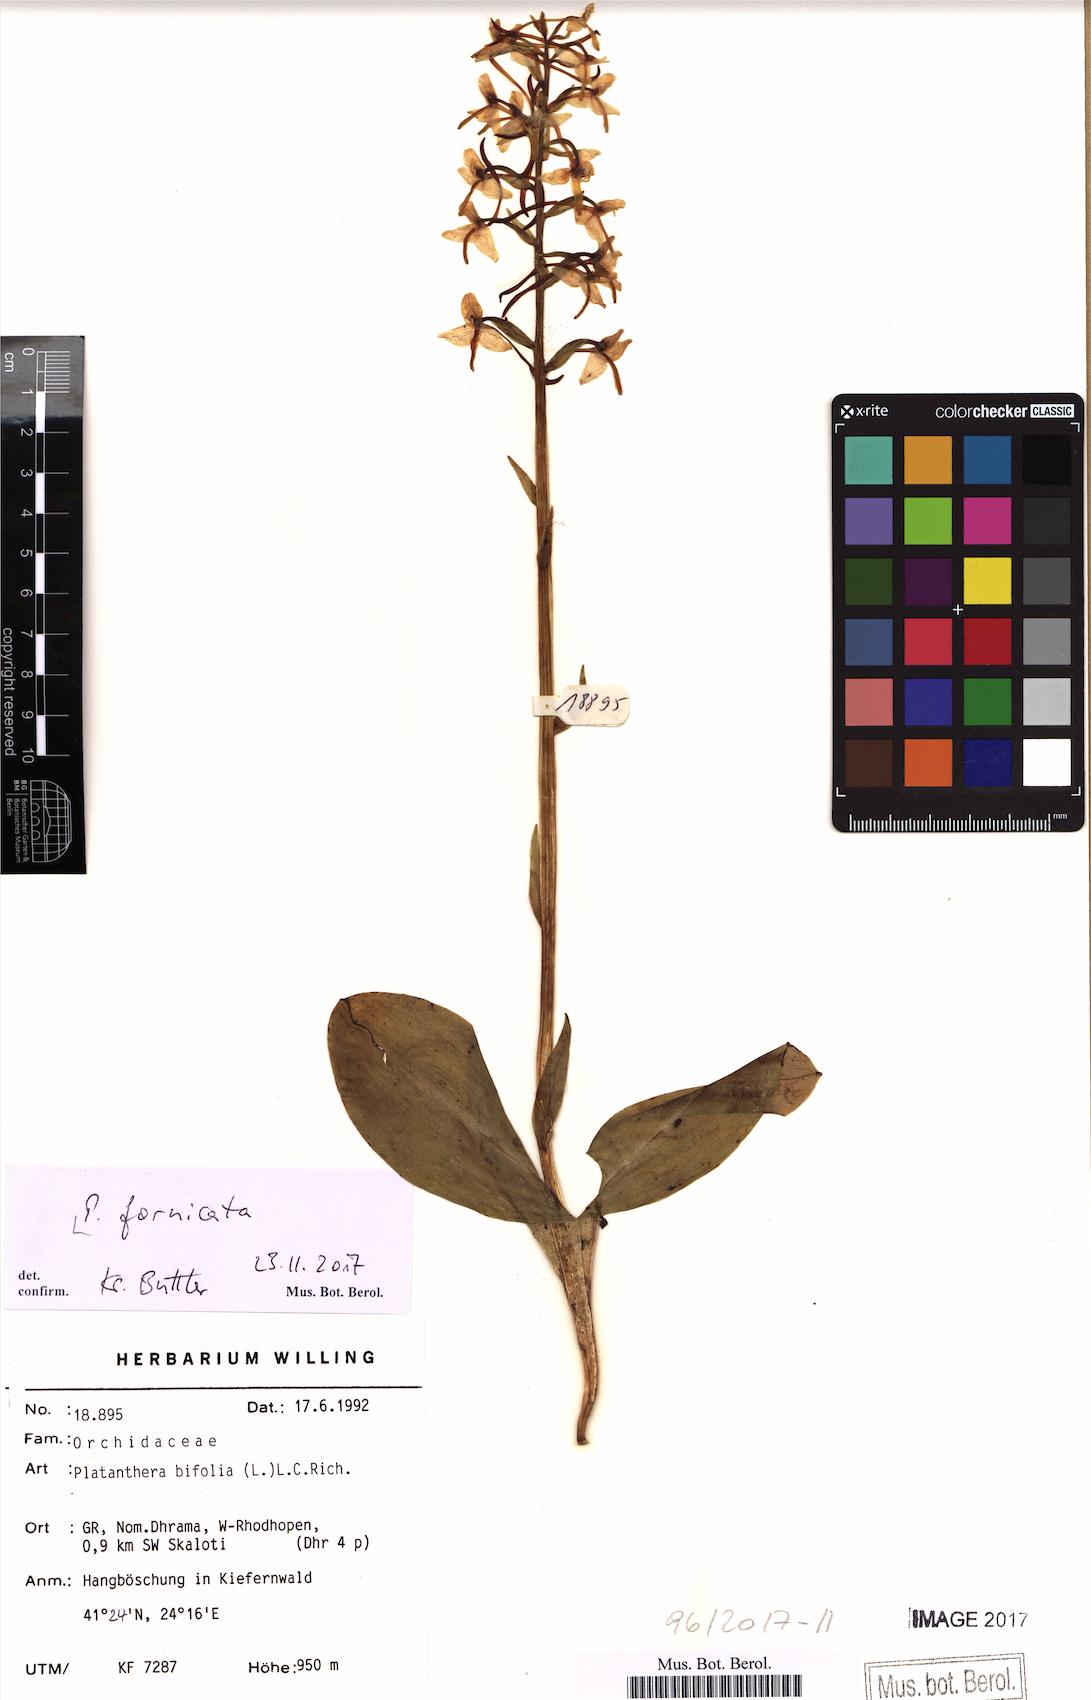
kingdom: Plantae
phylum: Tracheophyta
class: Liliopsida
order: Asparagales
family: Orchidaceae
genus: Platanthera
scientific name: Platanthera bifolia
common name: Lesser butterfly-orchid
